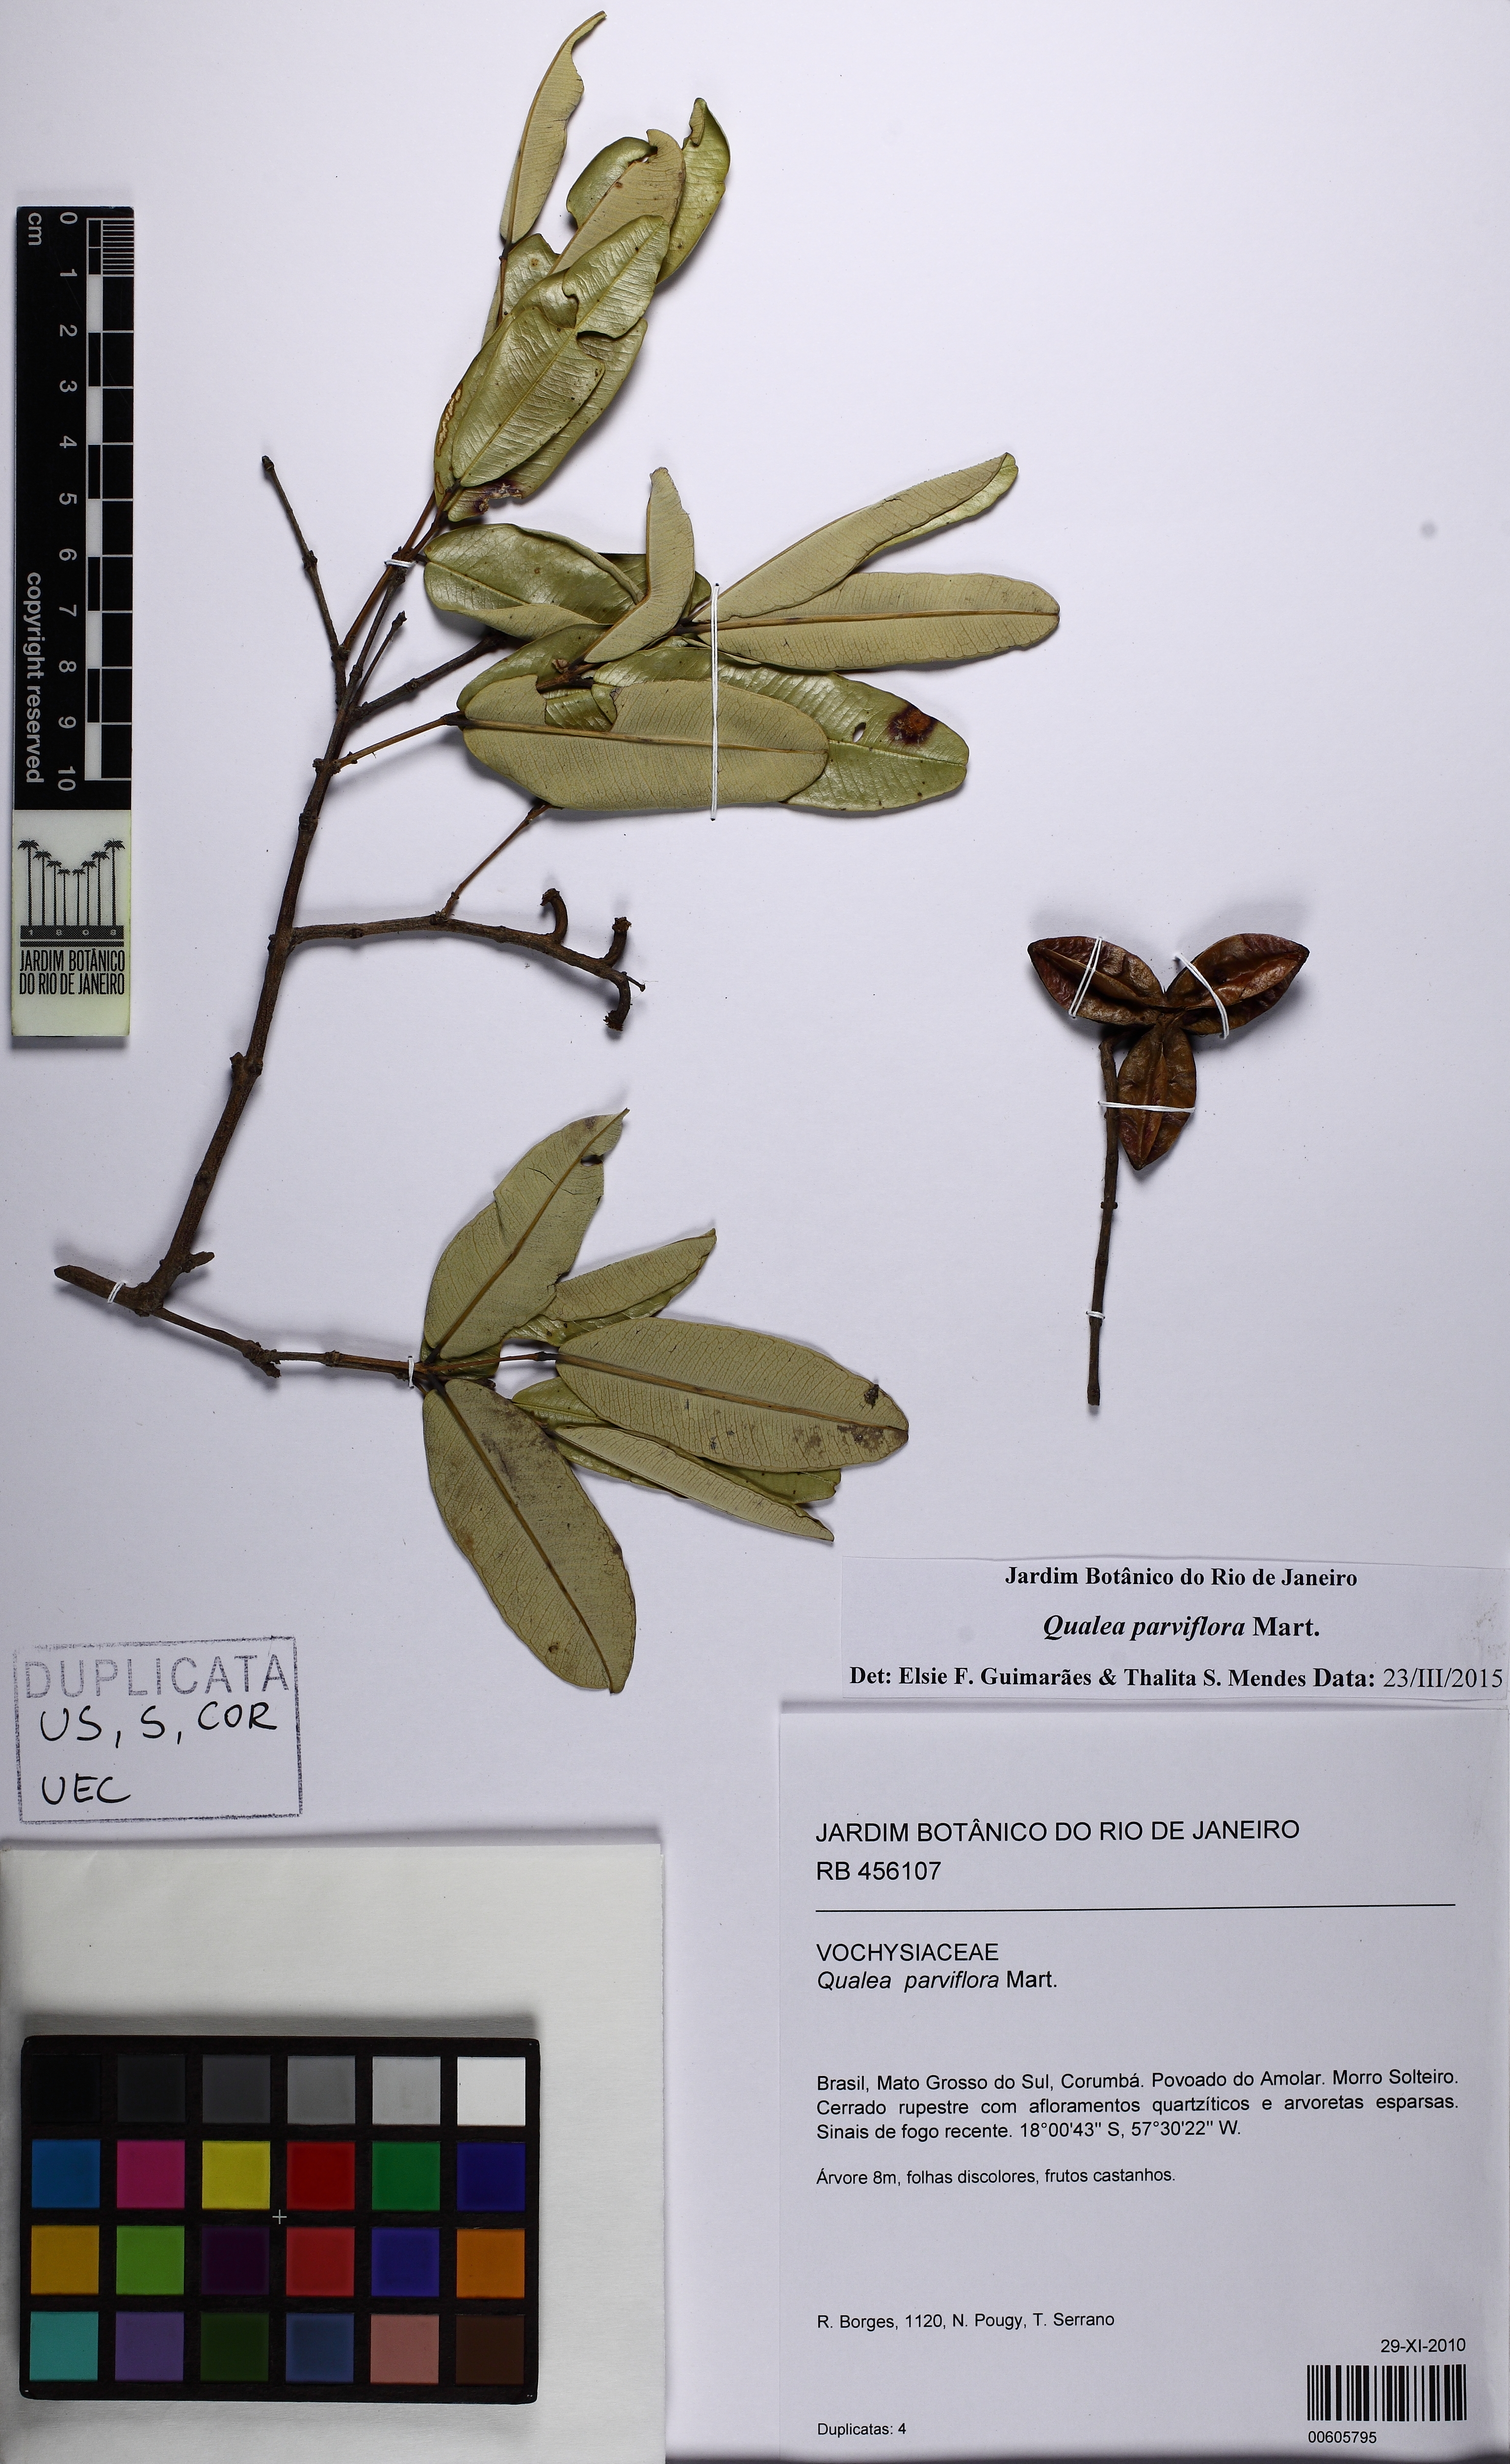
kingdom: Plantae
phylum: Tracheophyta
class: Magnoliopsida
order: Myrtales
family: Vochysiaceae
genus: Qualea
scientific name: Qualea parviflora
